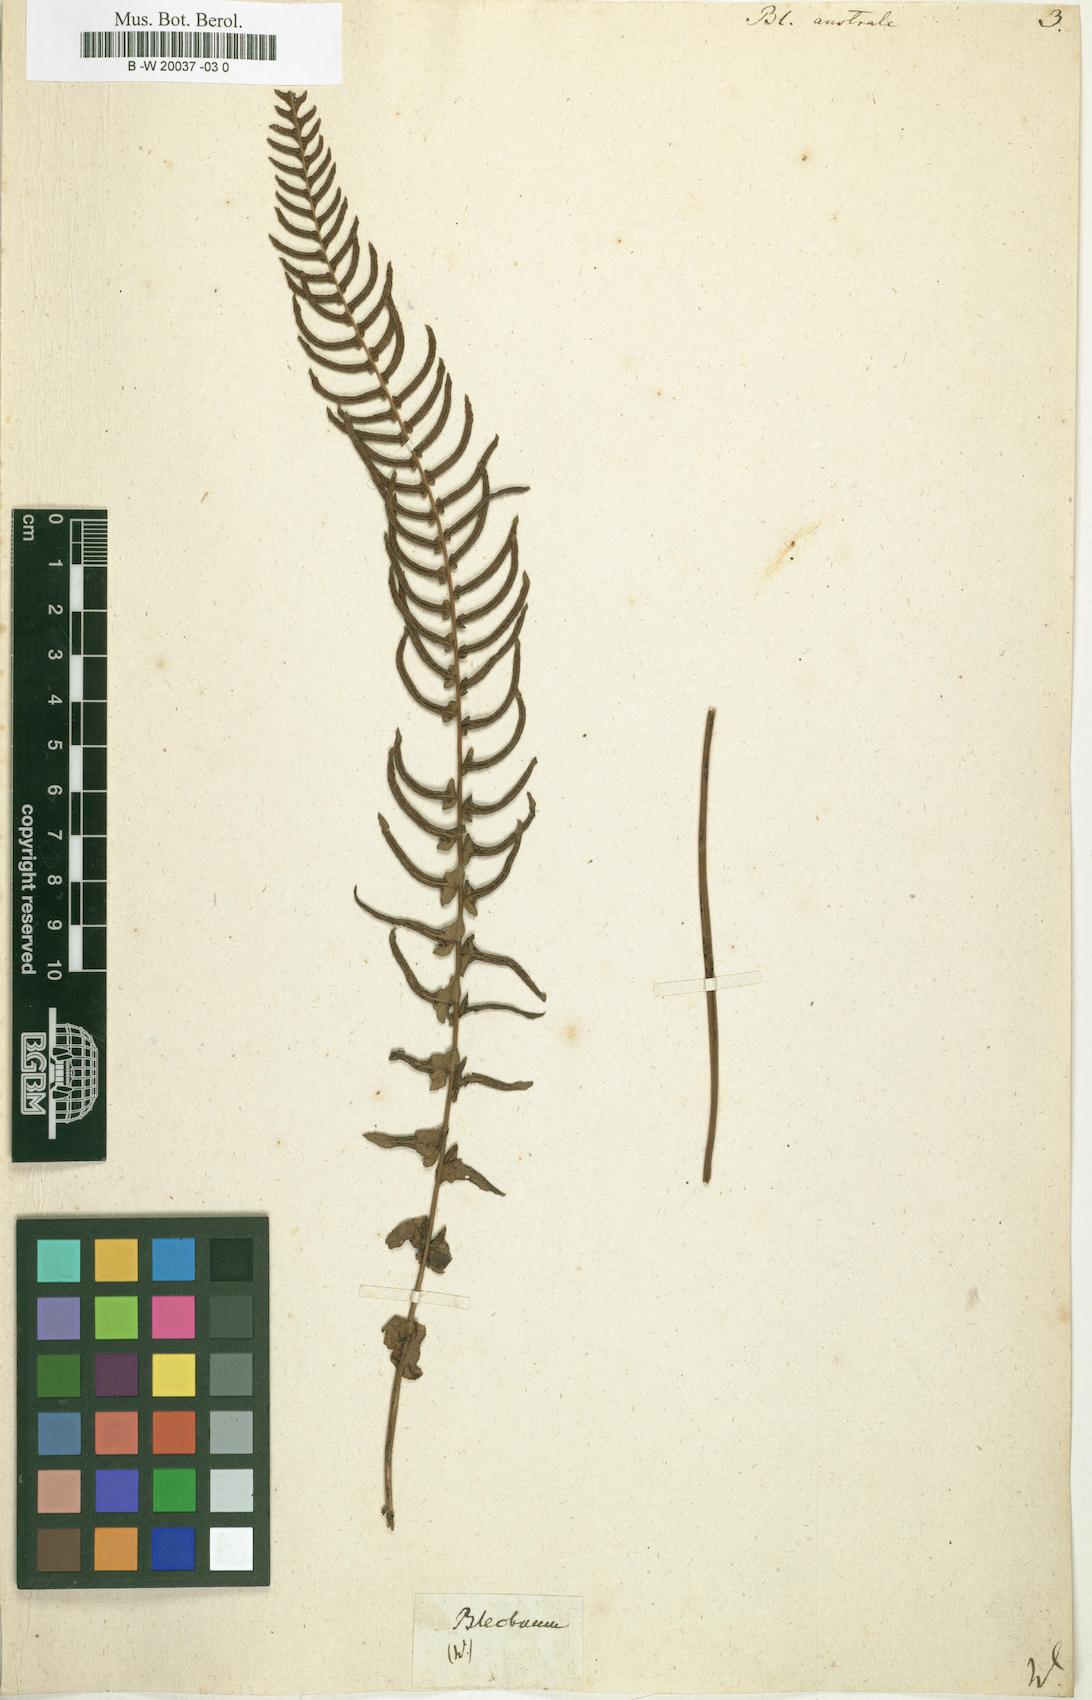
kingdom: Plantae
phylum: Tracheophyta
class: Polypodiopsida
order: Polypodiales
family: Blechnaceae
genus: Blechnum
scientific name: Blechnum australe
